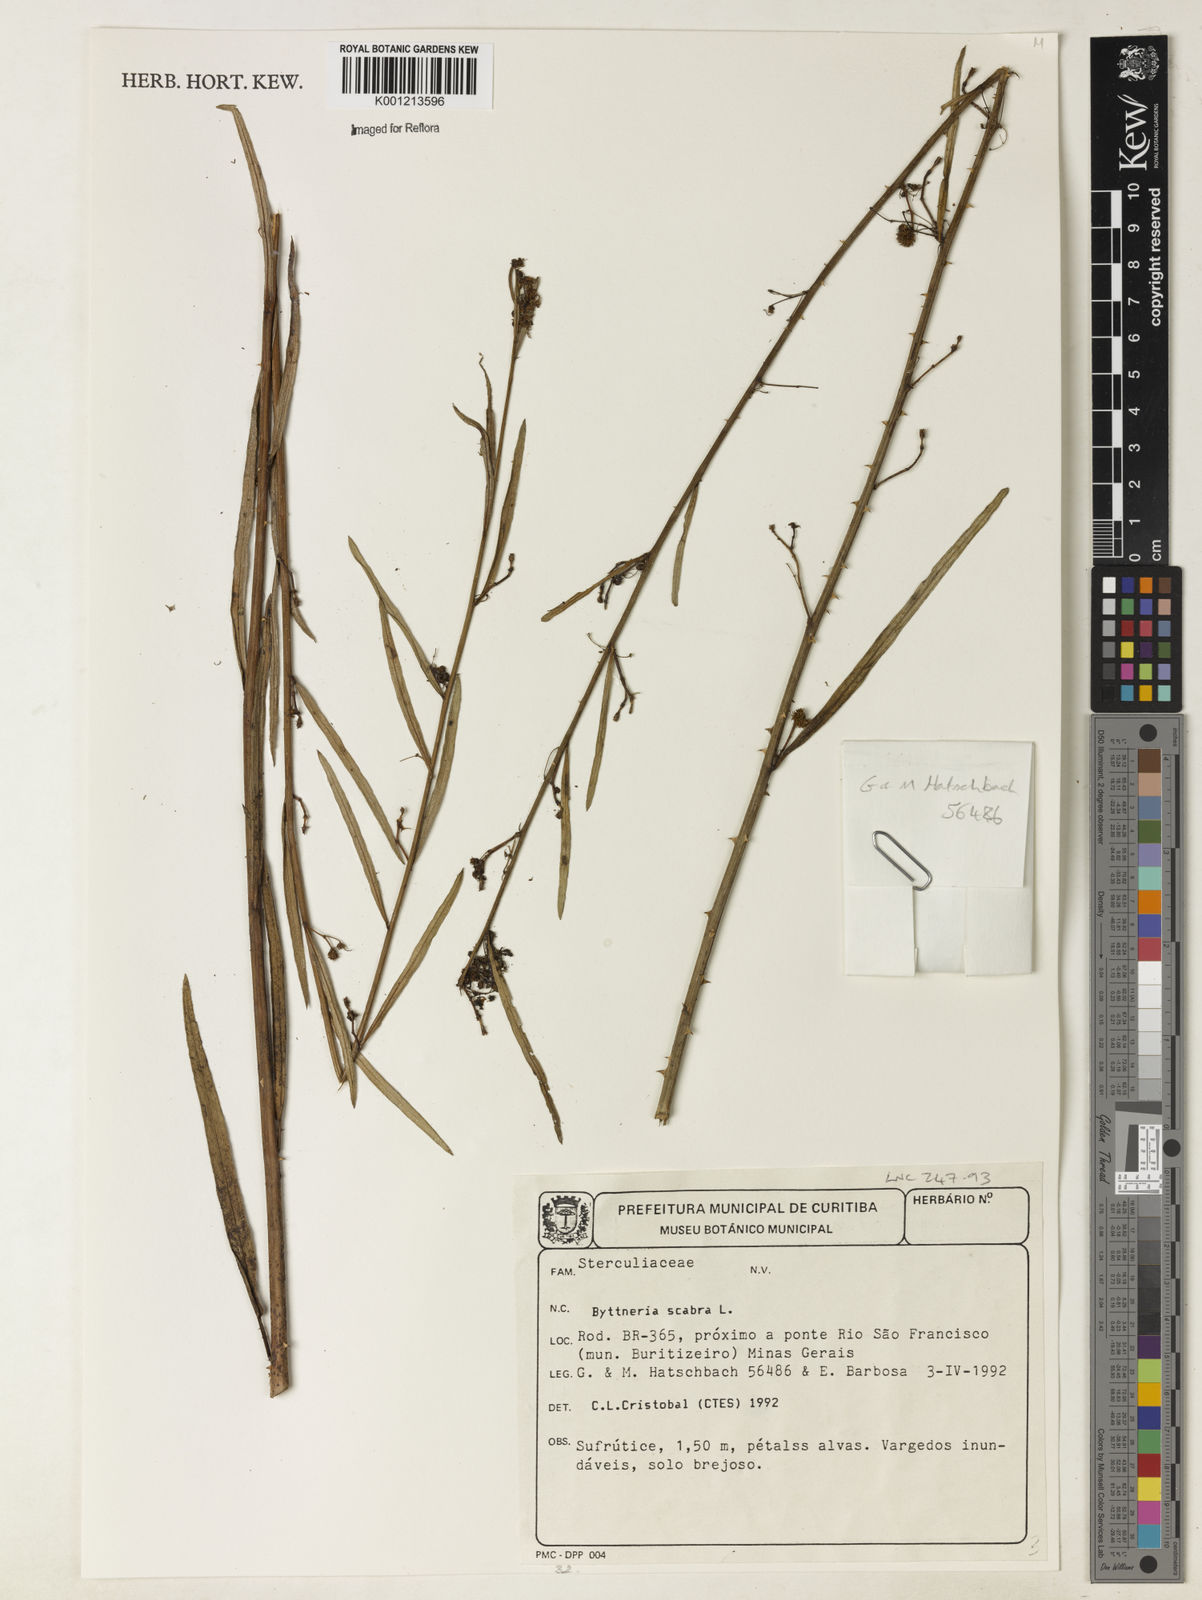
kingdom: Plantae
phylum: Tracheophyta
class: Magnoliopsida
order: Malvales
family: Malvaceae
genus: Byttneria
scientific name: Byttneria
